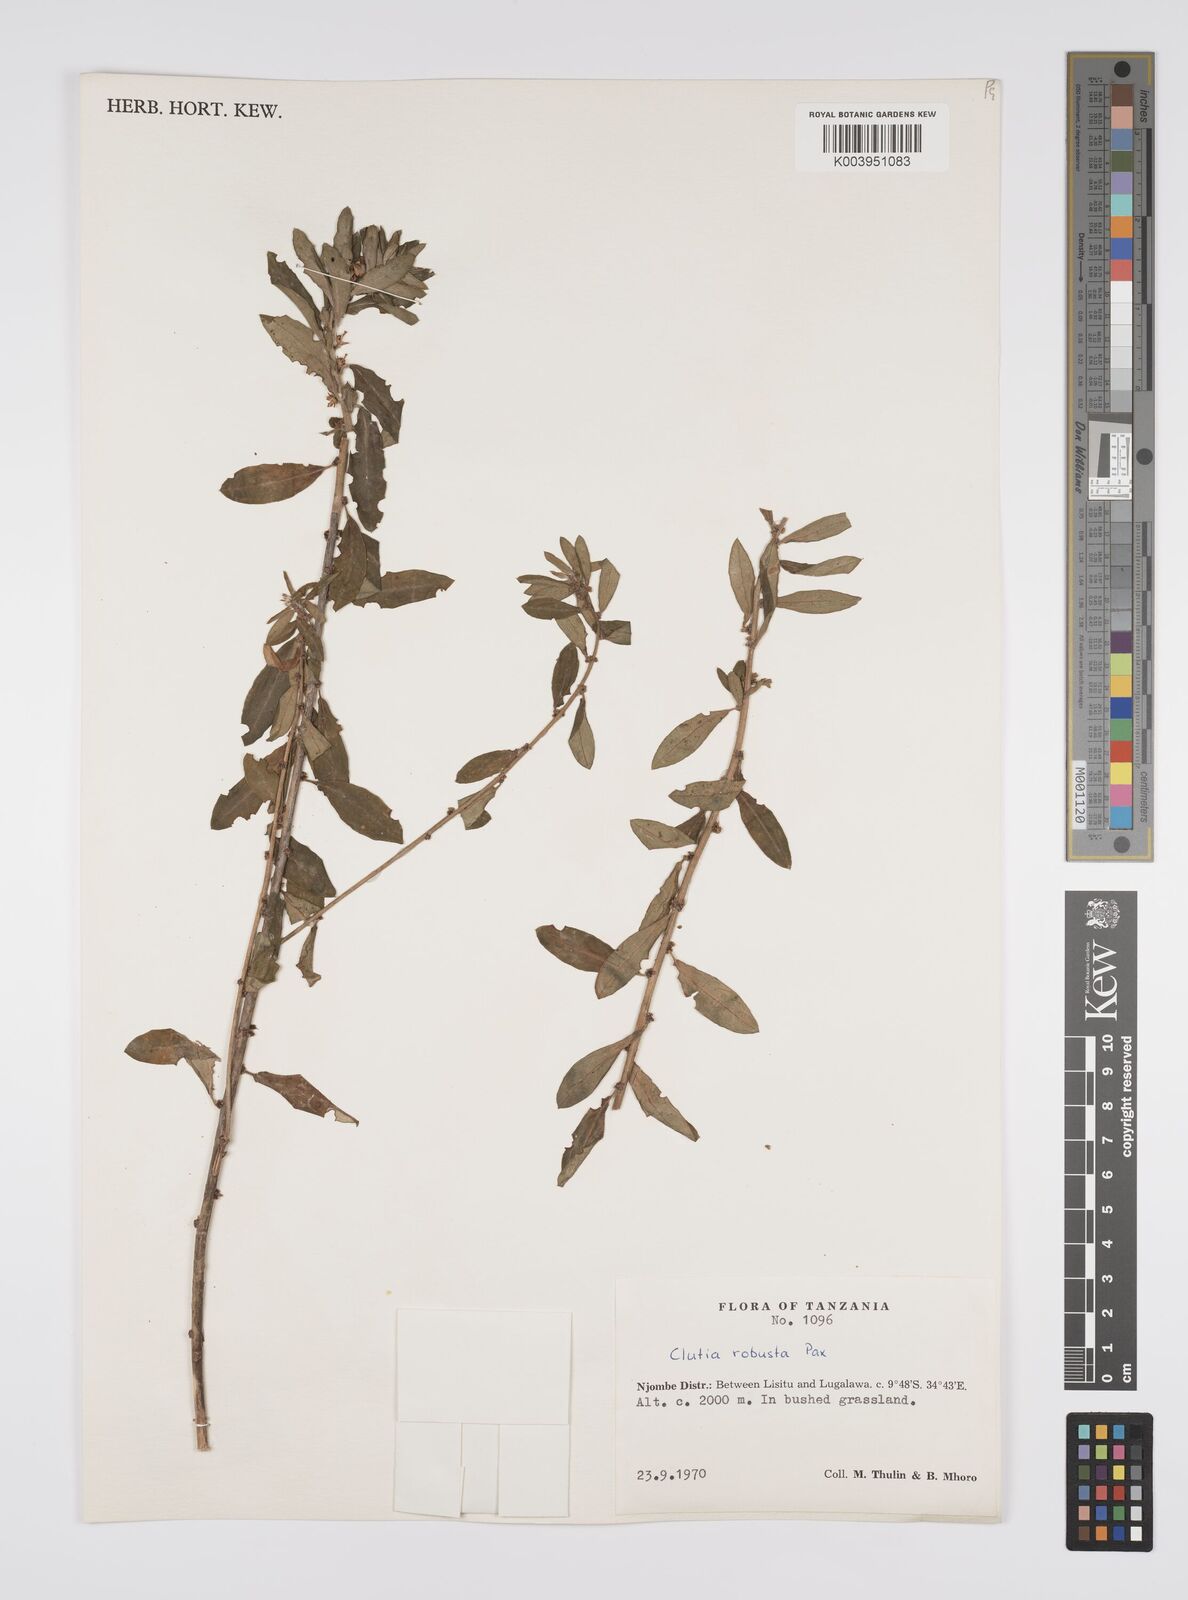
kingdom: Plantae
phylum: Tracheophyta
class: Magnoliopsida
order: Malpighiales
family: Peraceae
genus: Clutia
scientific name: Clutia kilimandscharica
